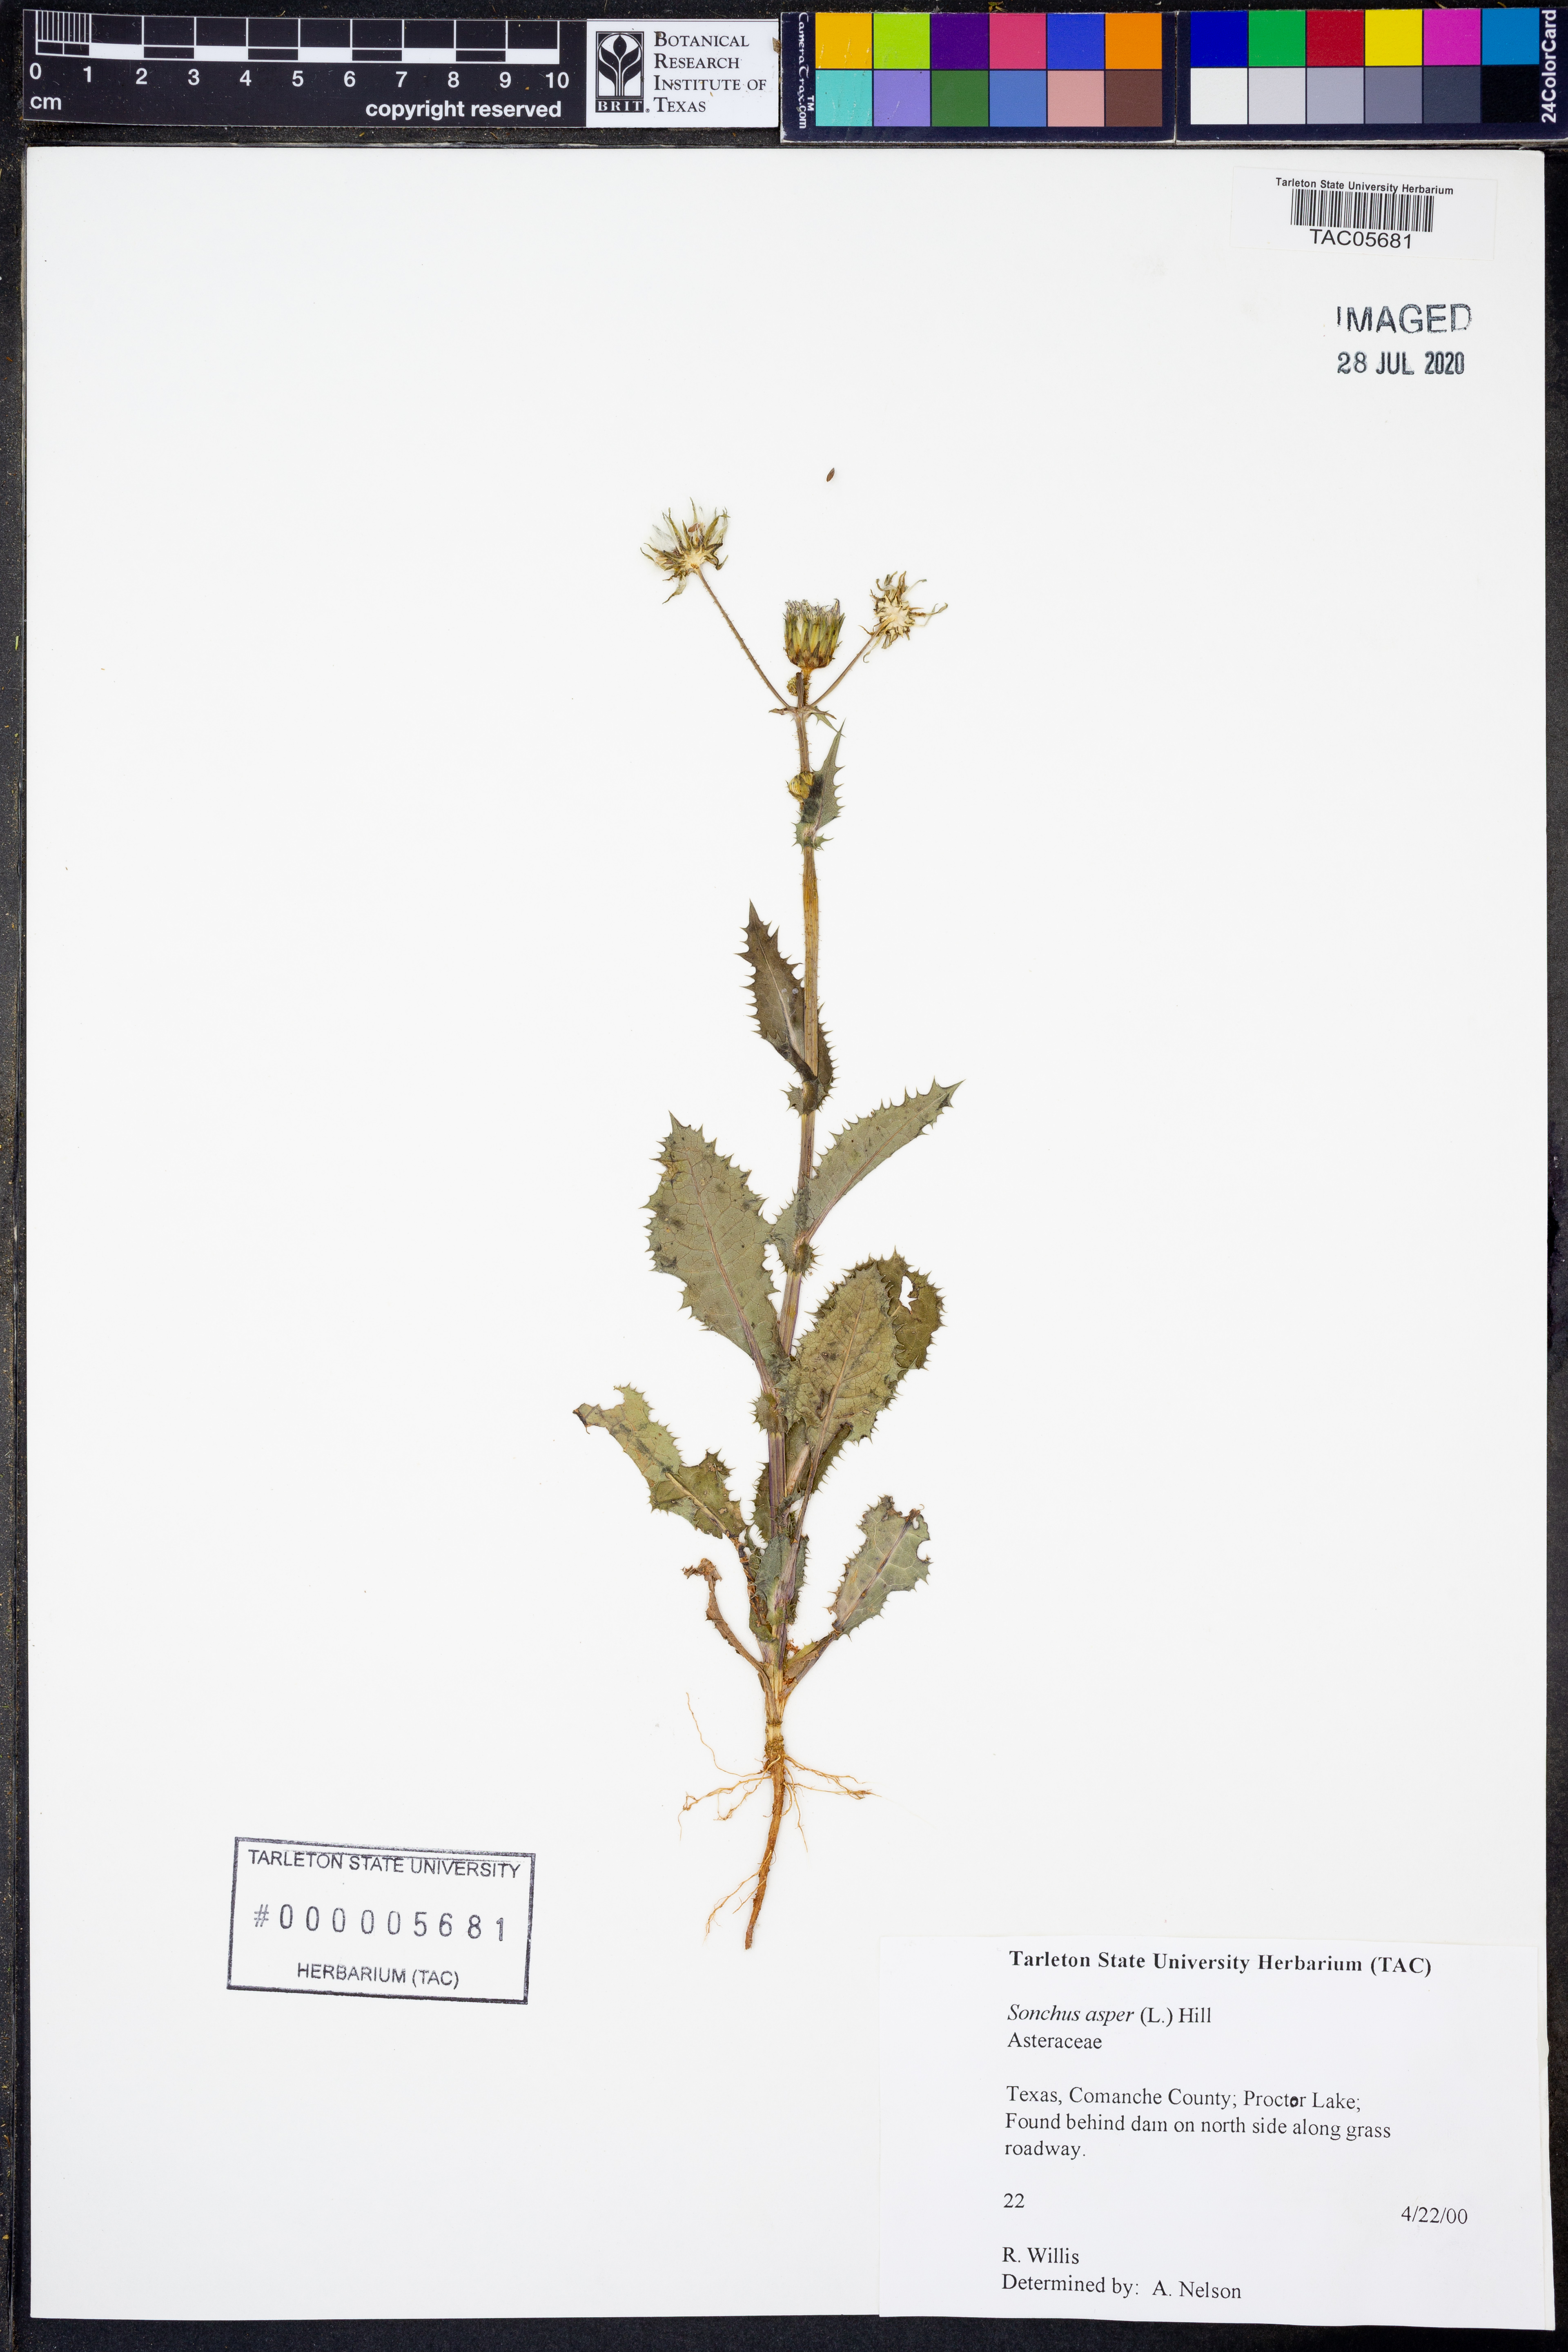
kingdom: Plantae
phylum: Tracheophyta
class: Magnoliopsida
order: Asterales
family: Asteraceae
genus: Sonchus
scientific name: Sonchus asper
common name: Prickly sow-thistle
